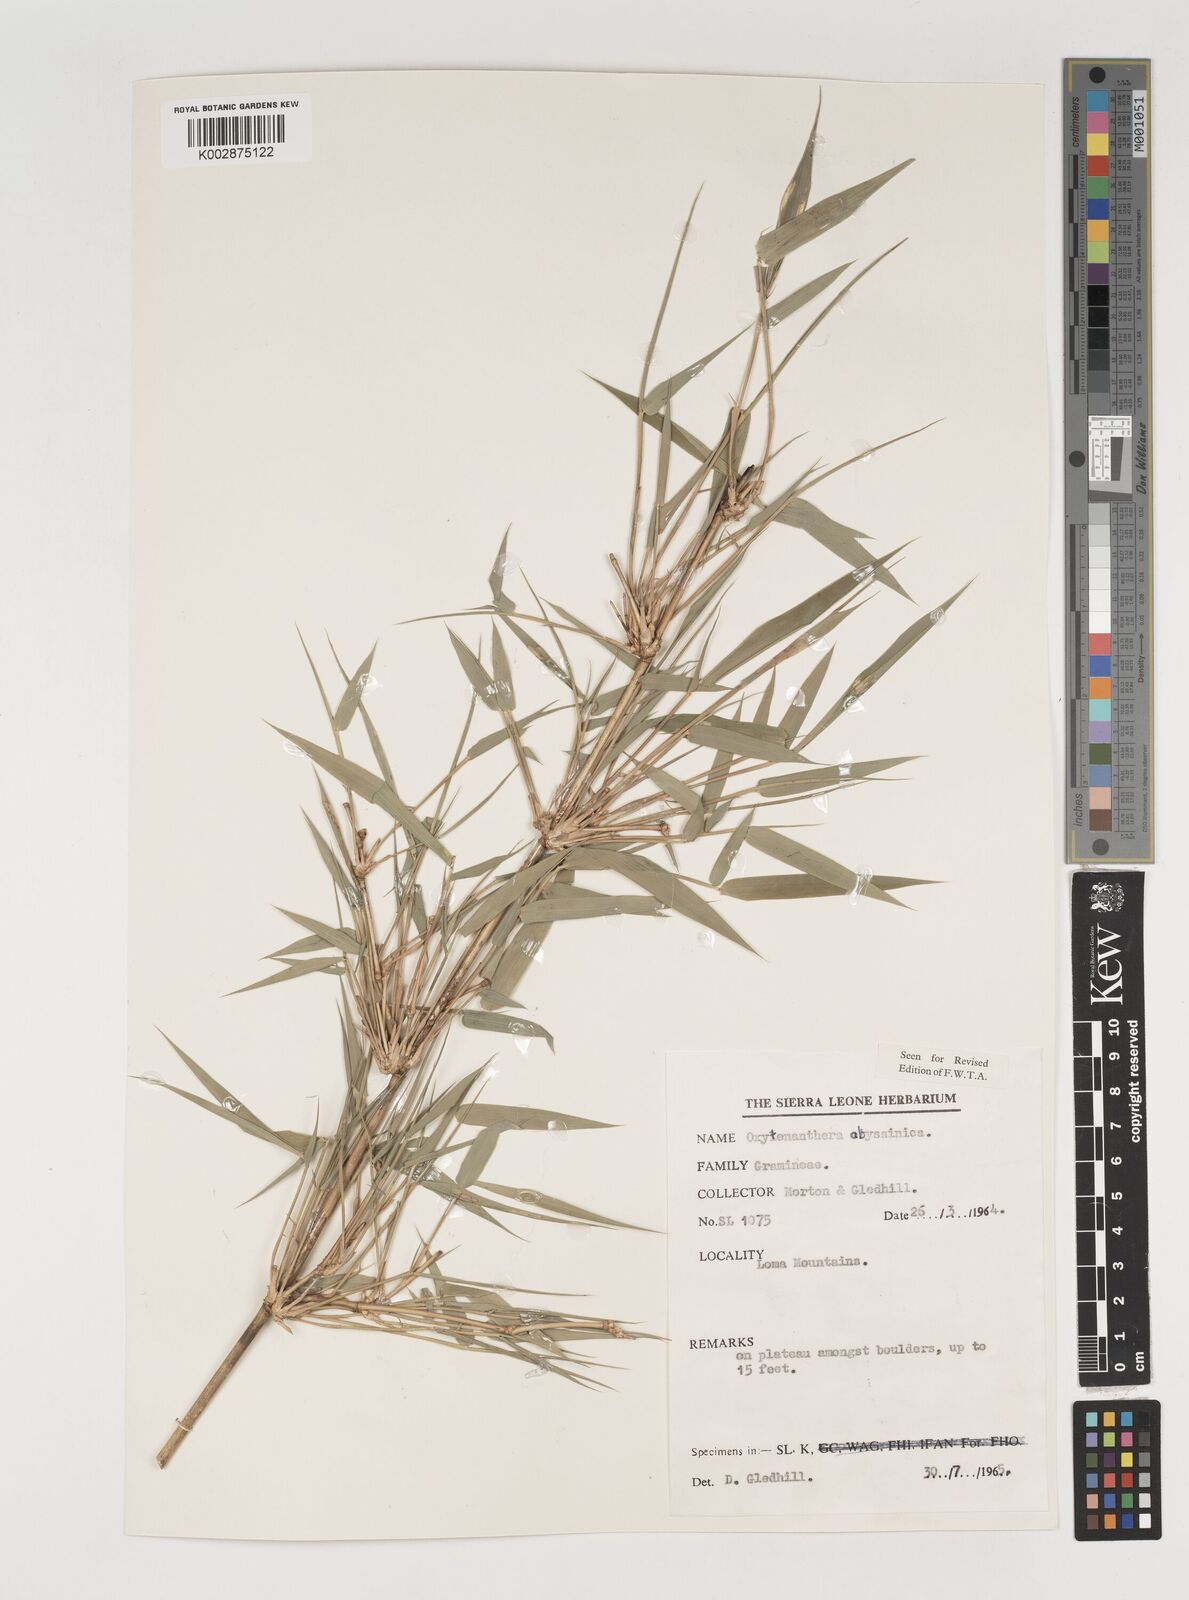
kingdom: Plantae
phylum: Tracheophyta
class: Liliopsida
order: Poales
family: Poaceae
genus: Oxytenanthera
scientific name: Oxytenanthera abyssinica
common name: Wine bamboo
